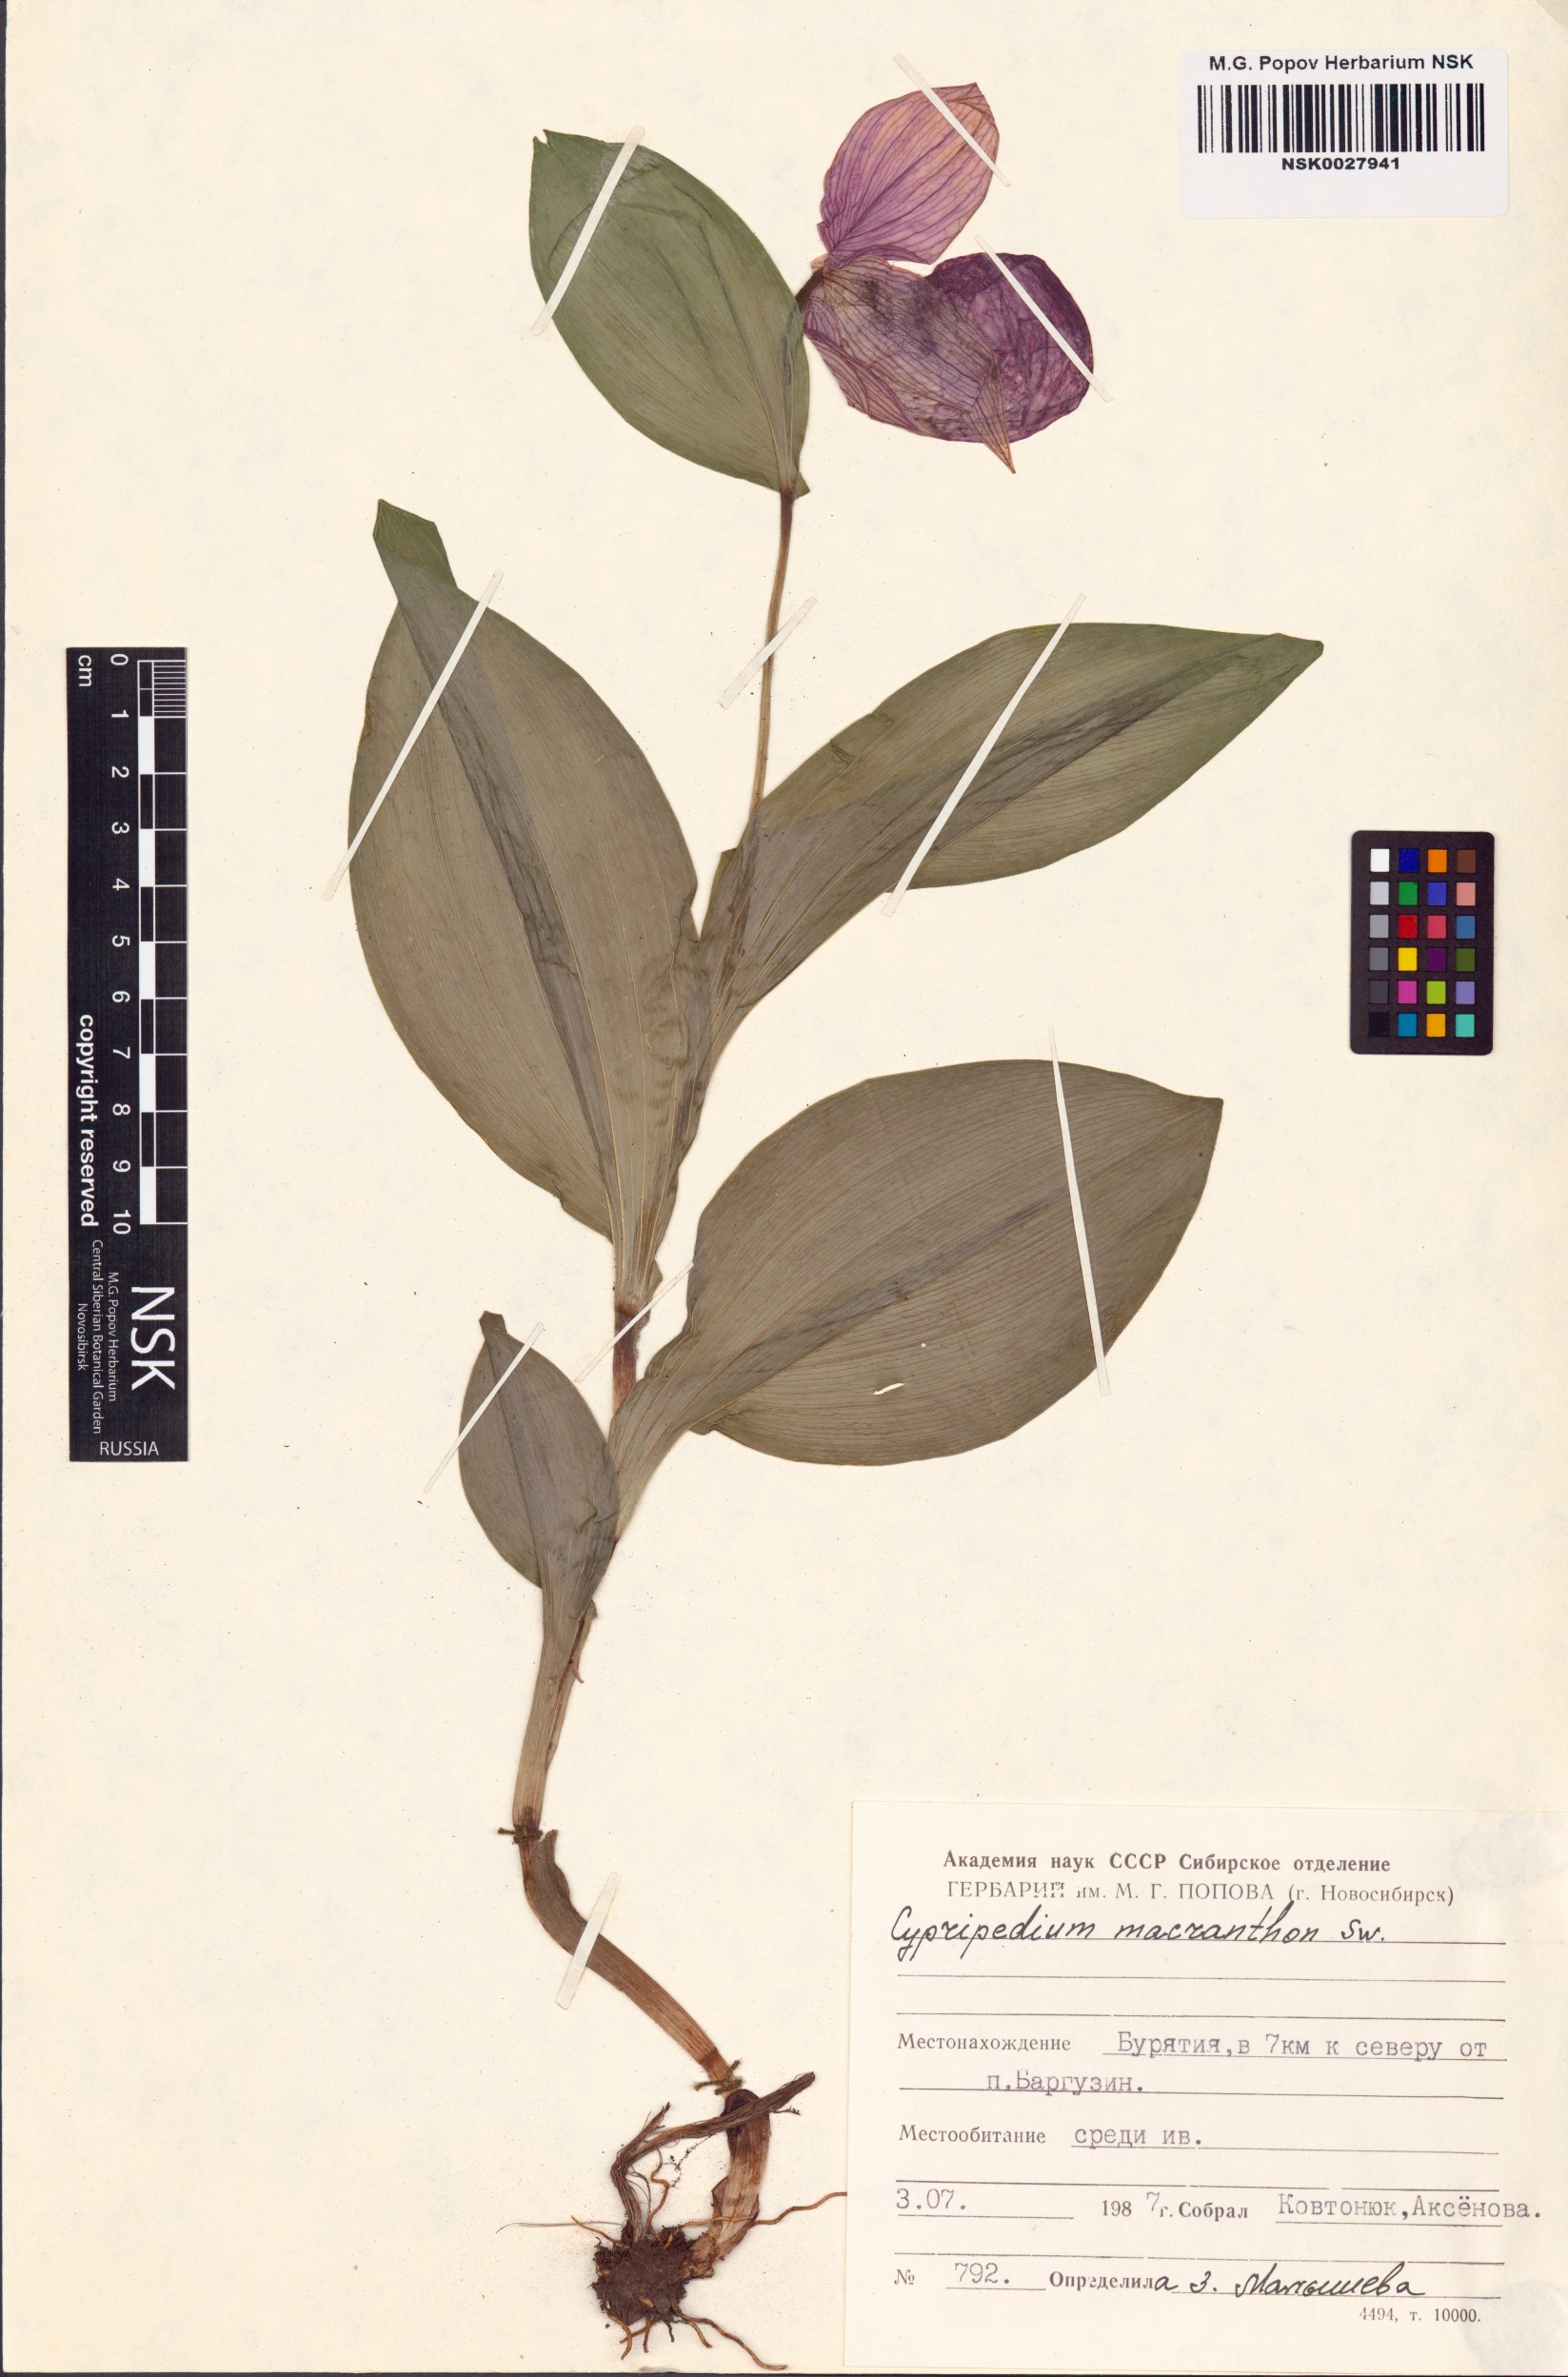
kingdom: Plantae
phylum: Tracheophyta
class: Liliopsida
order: Asparagales
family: Orchidaceae
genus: Cypripedium
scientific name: Cypripedium macranthos
